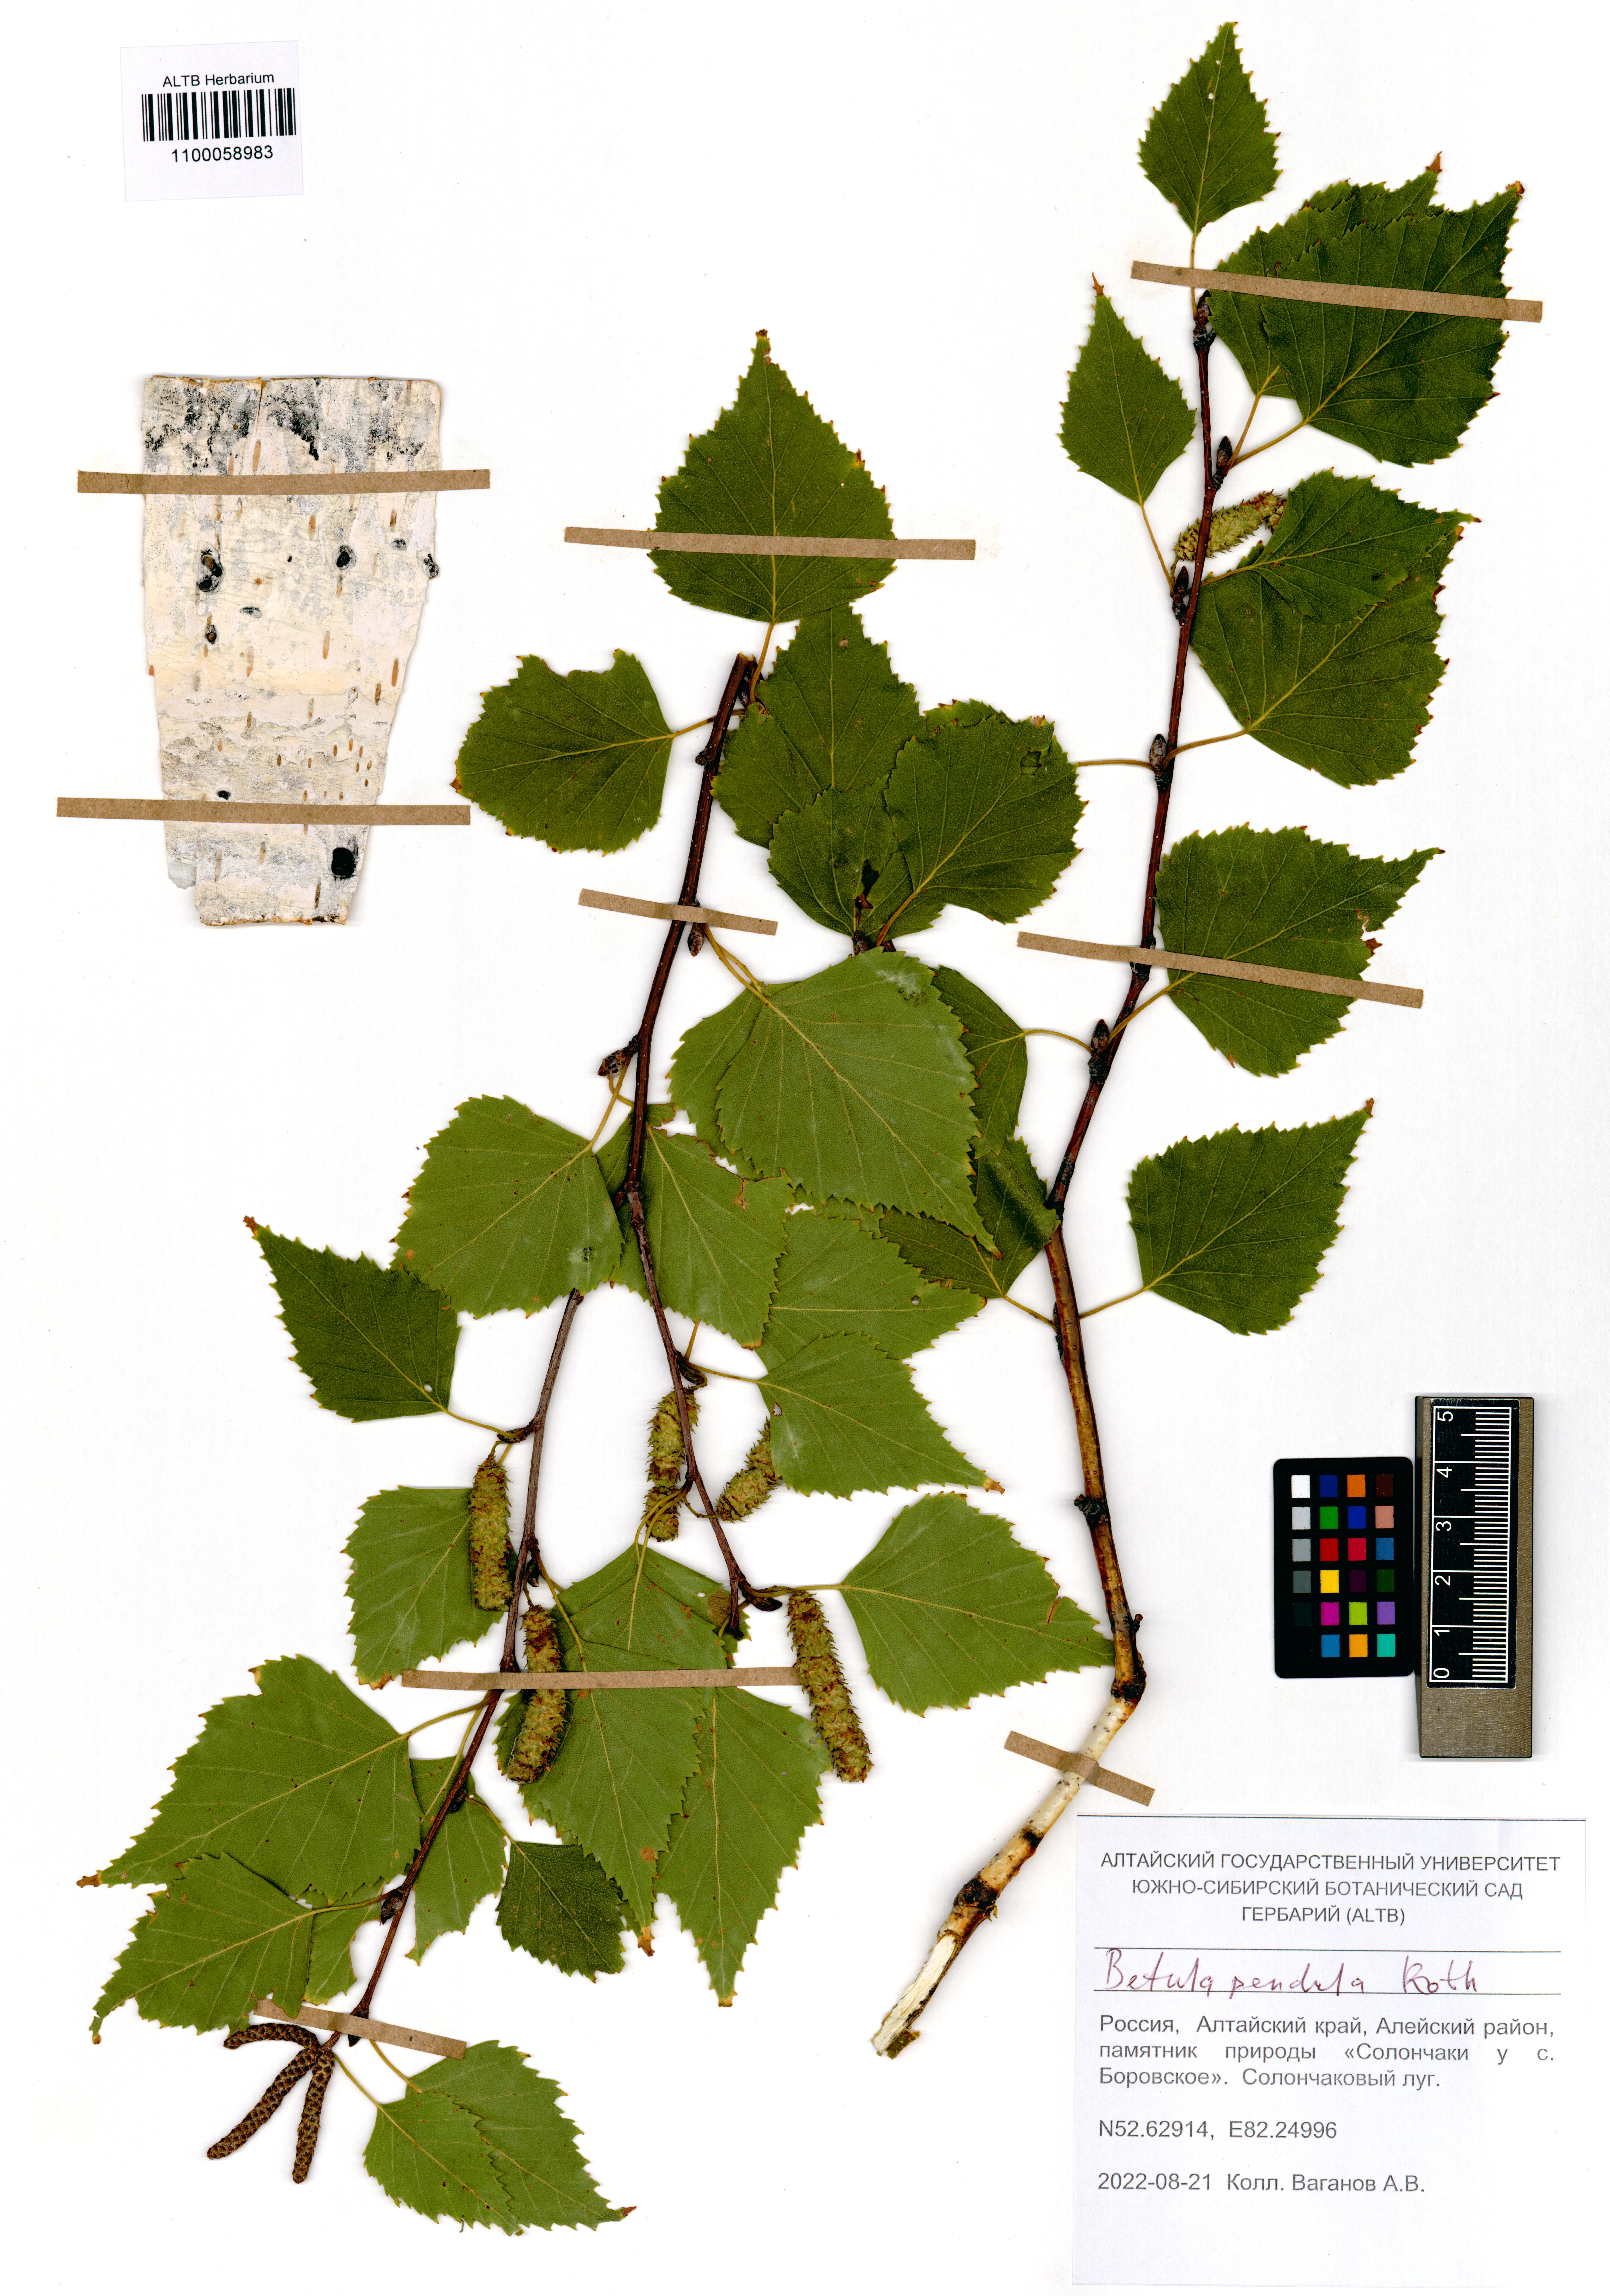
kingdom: Plantae
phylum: Tracheophyta
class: Magnoliopsida
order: Fagales
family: Betulaceae
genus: Betula
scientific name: Betula pendula
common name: Silver birch
